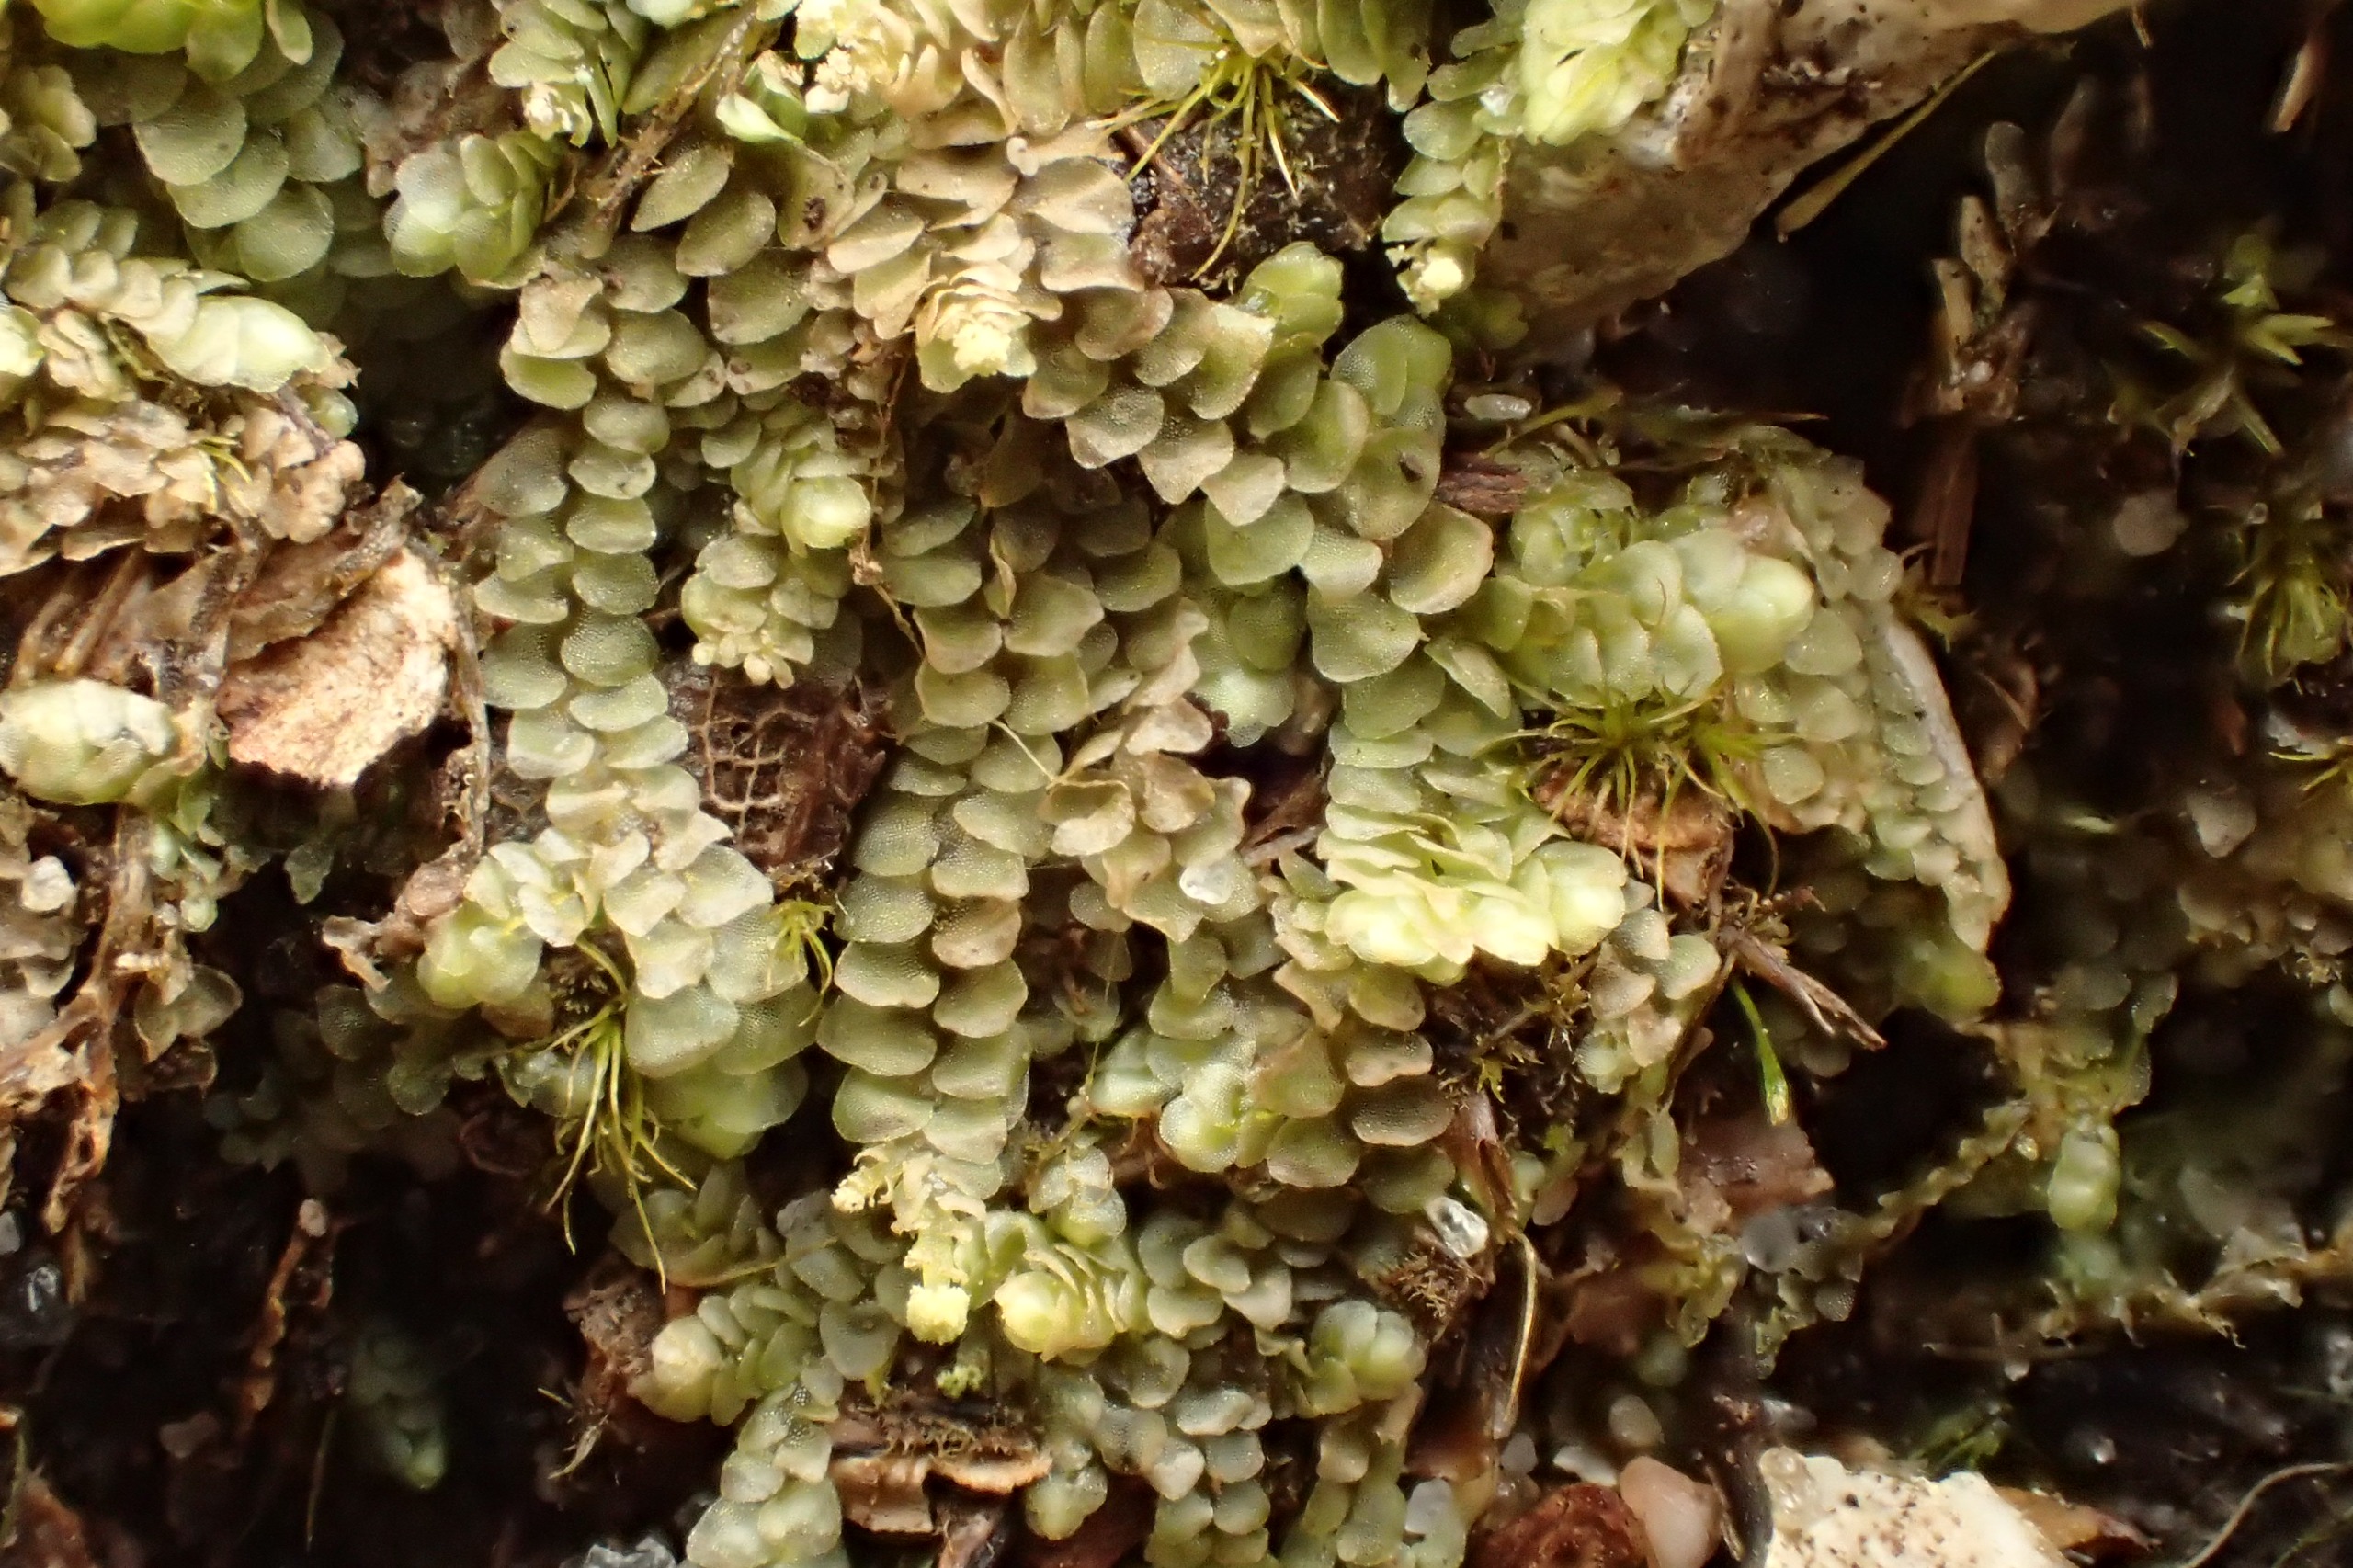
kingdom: Plantae
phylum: Marchantiophyta
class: Jungermanniopsida
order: Jungermanniales
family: Calypogeiaceae
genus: Calypogeia
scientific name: Calypogeia muelleriana
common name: Almindelig sækmos
